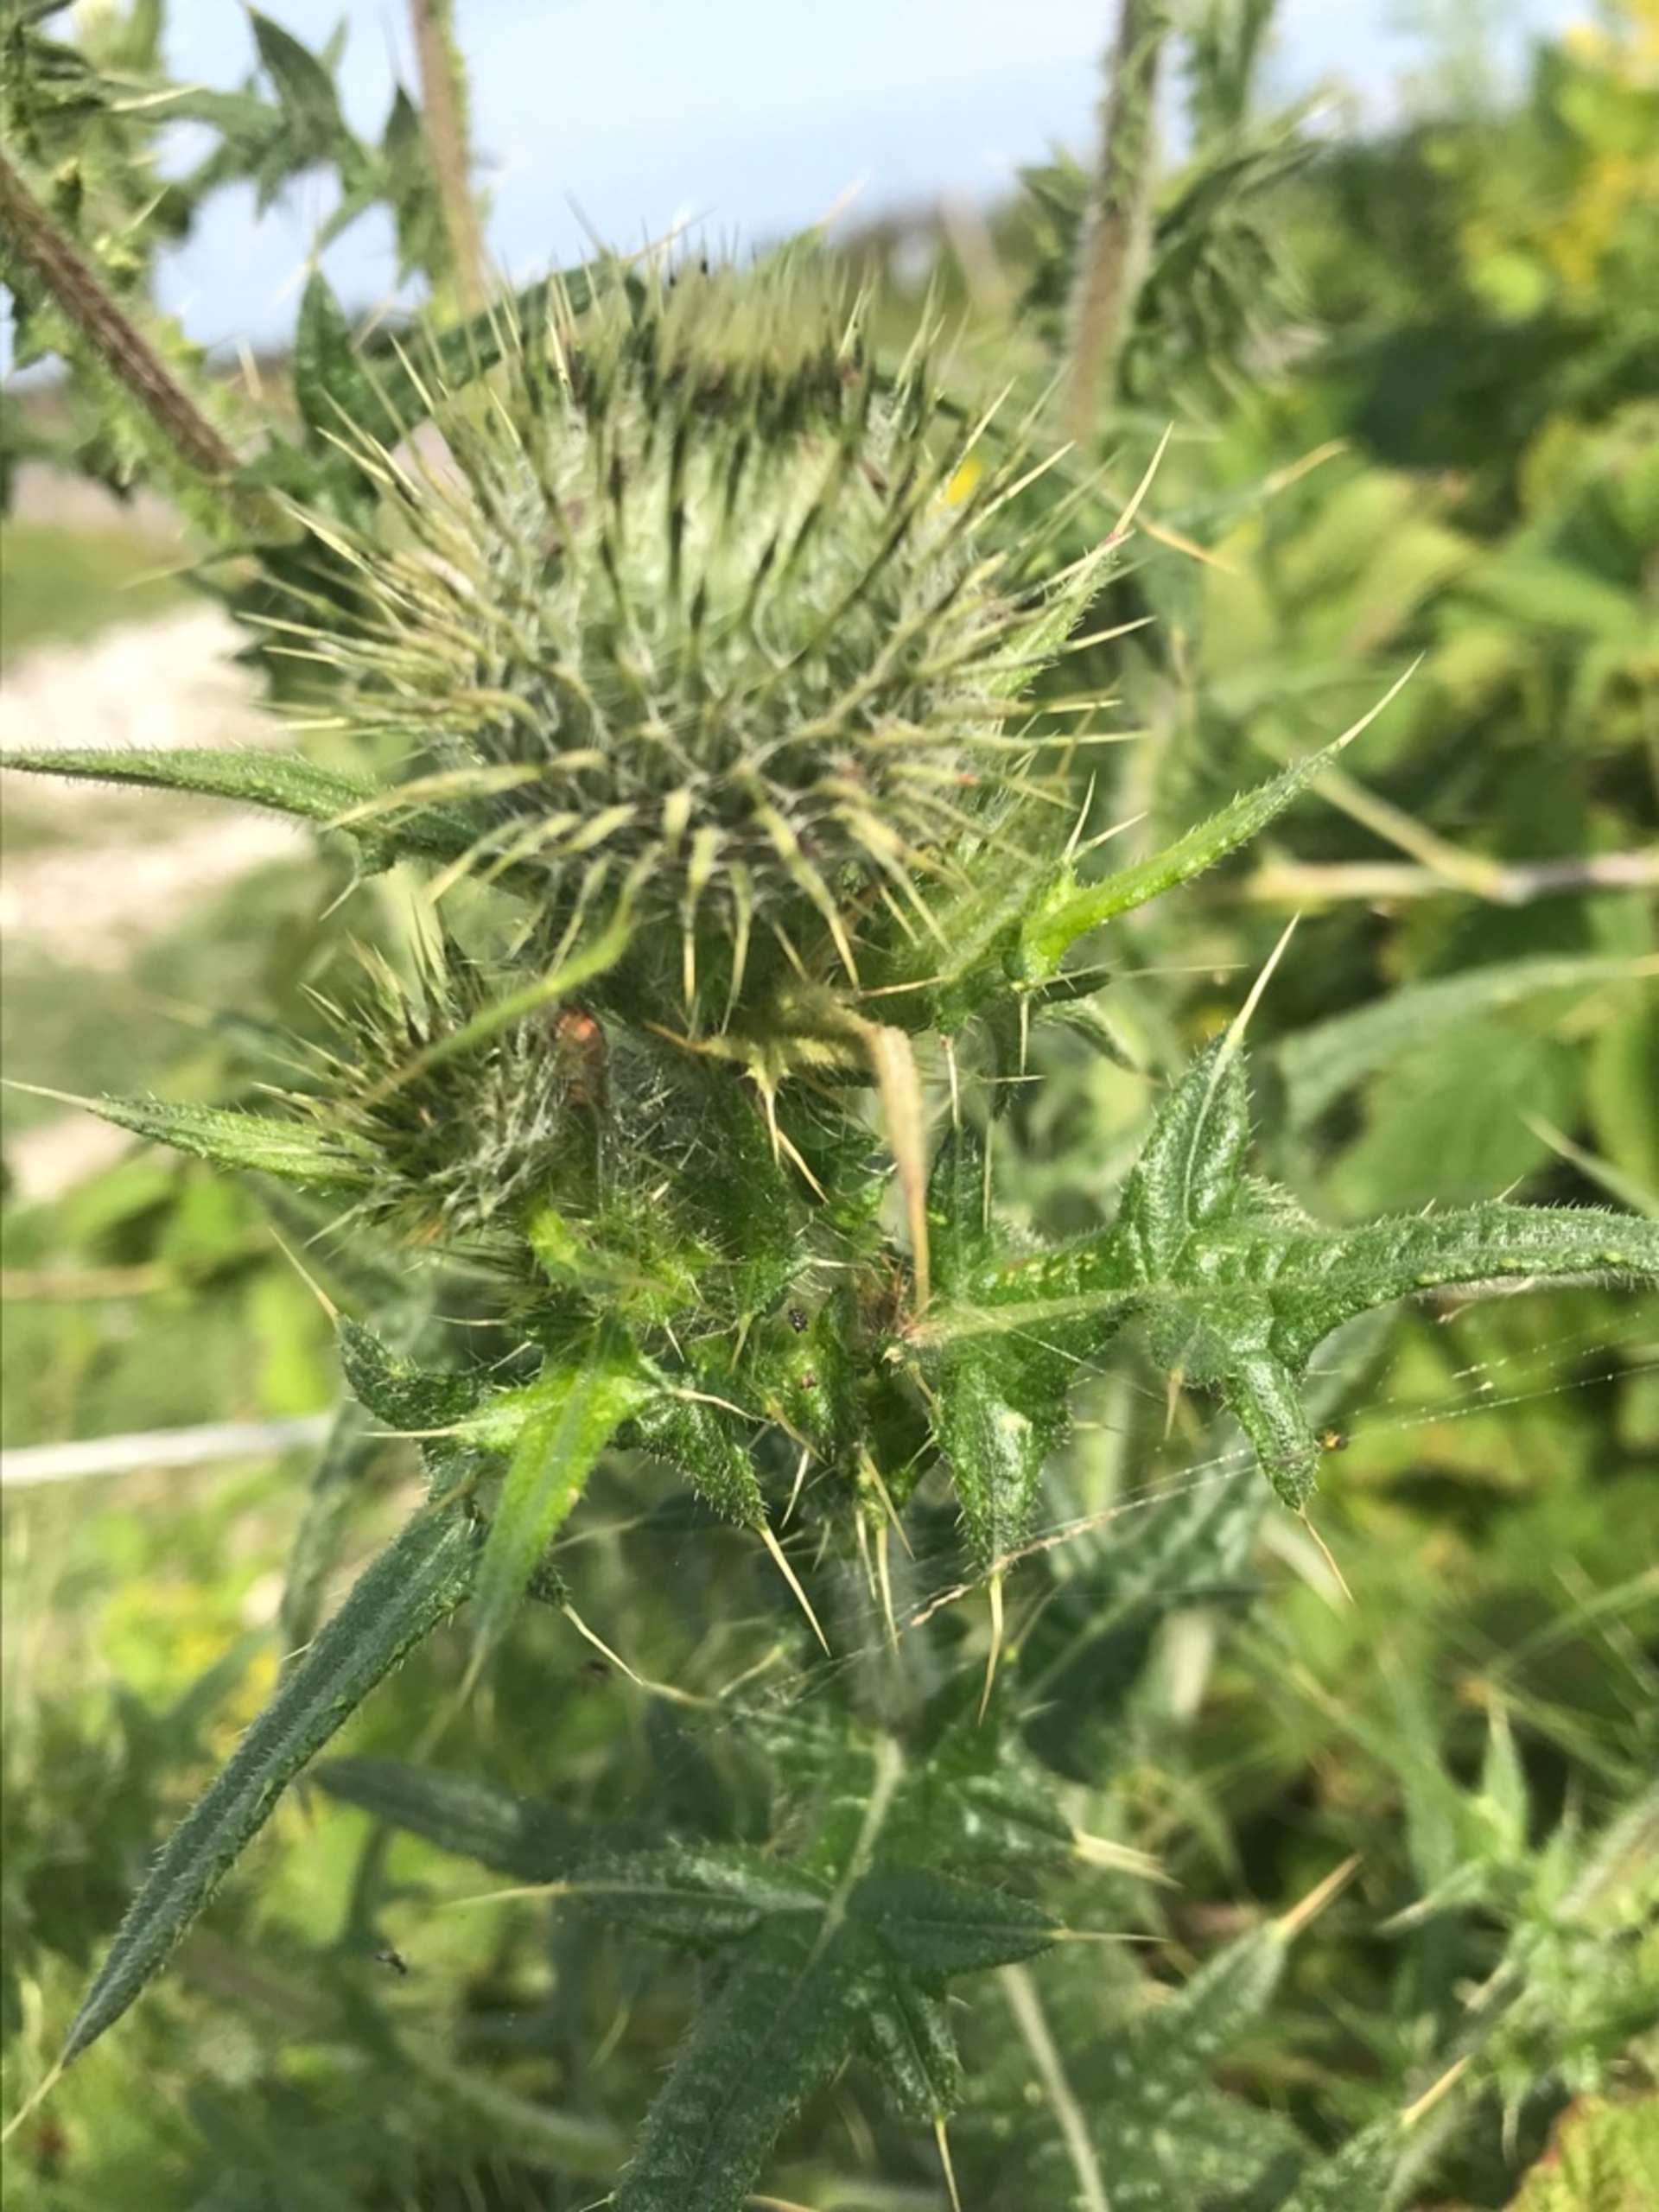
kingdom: Plantae
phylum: Tracheophyta
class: Magnoliopsida
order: Asterales
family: Asteraceae
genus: Cirsium
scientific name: Cirsium vulgare
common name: Horse-tidsel
